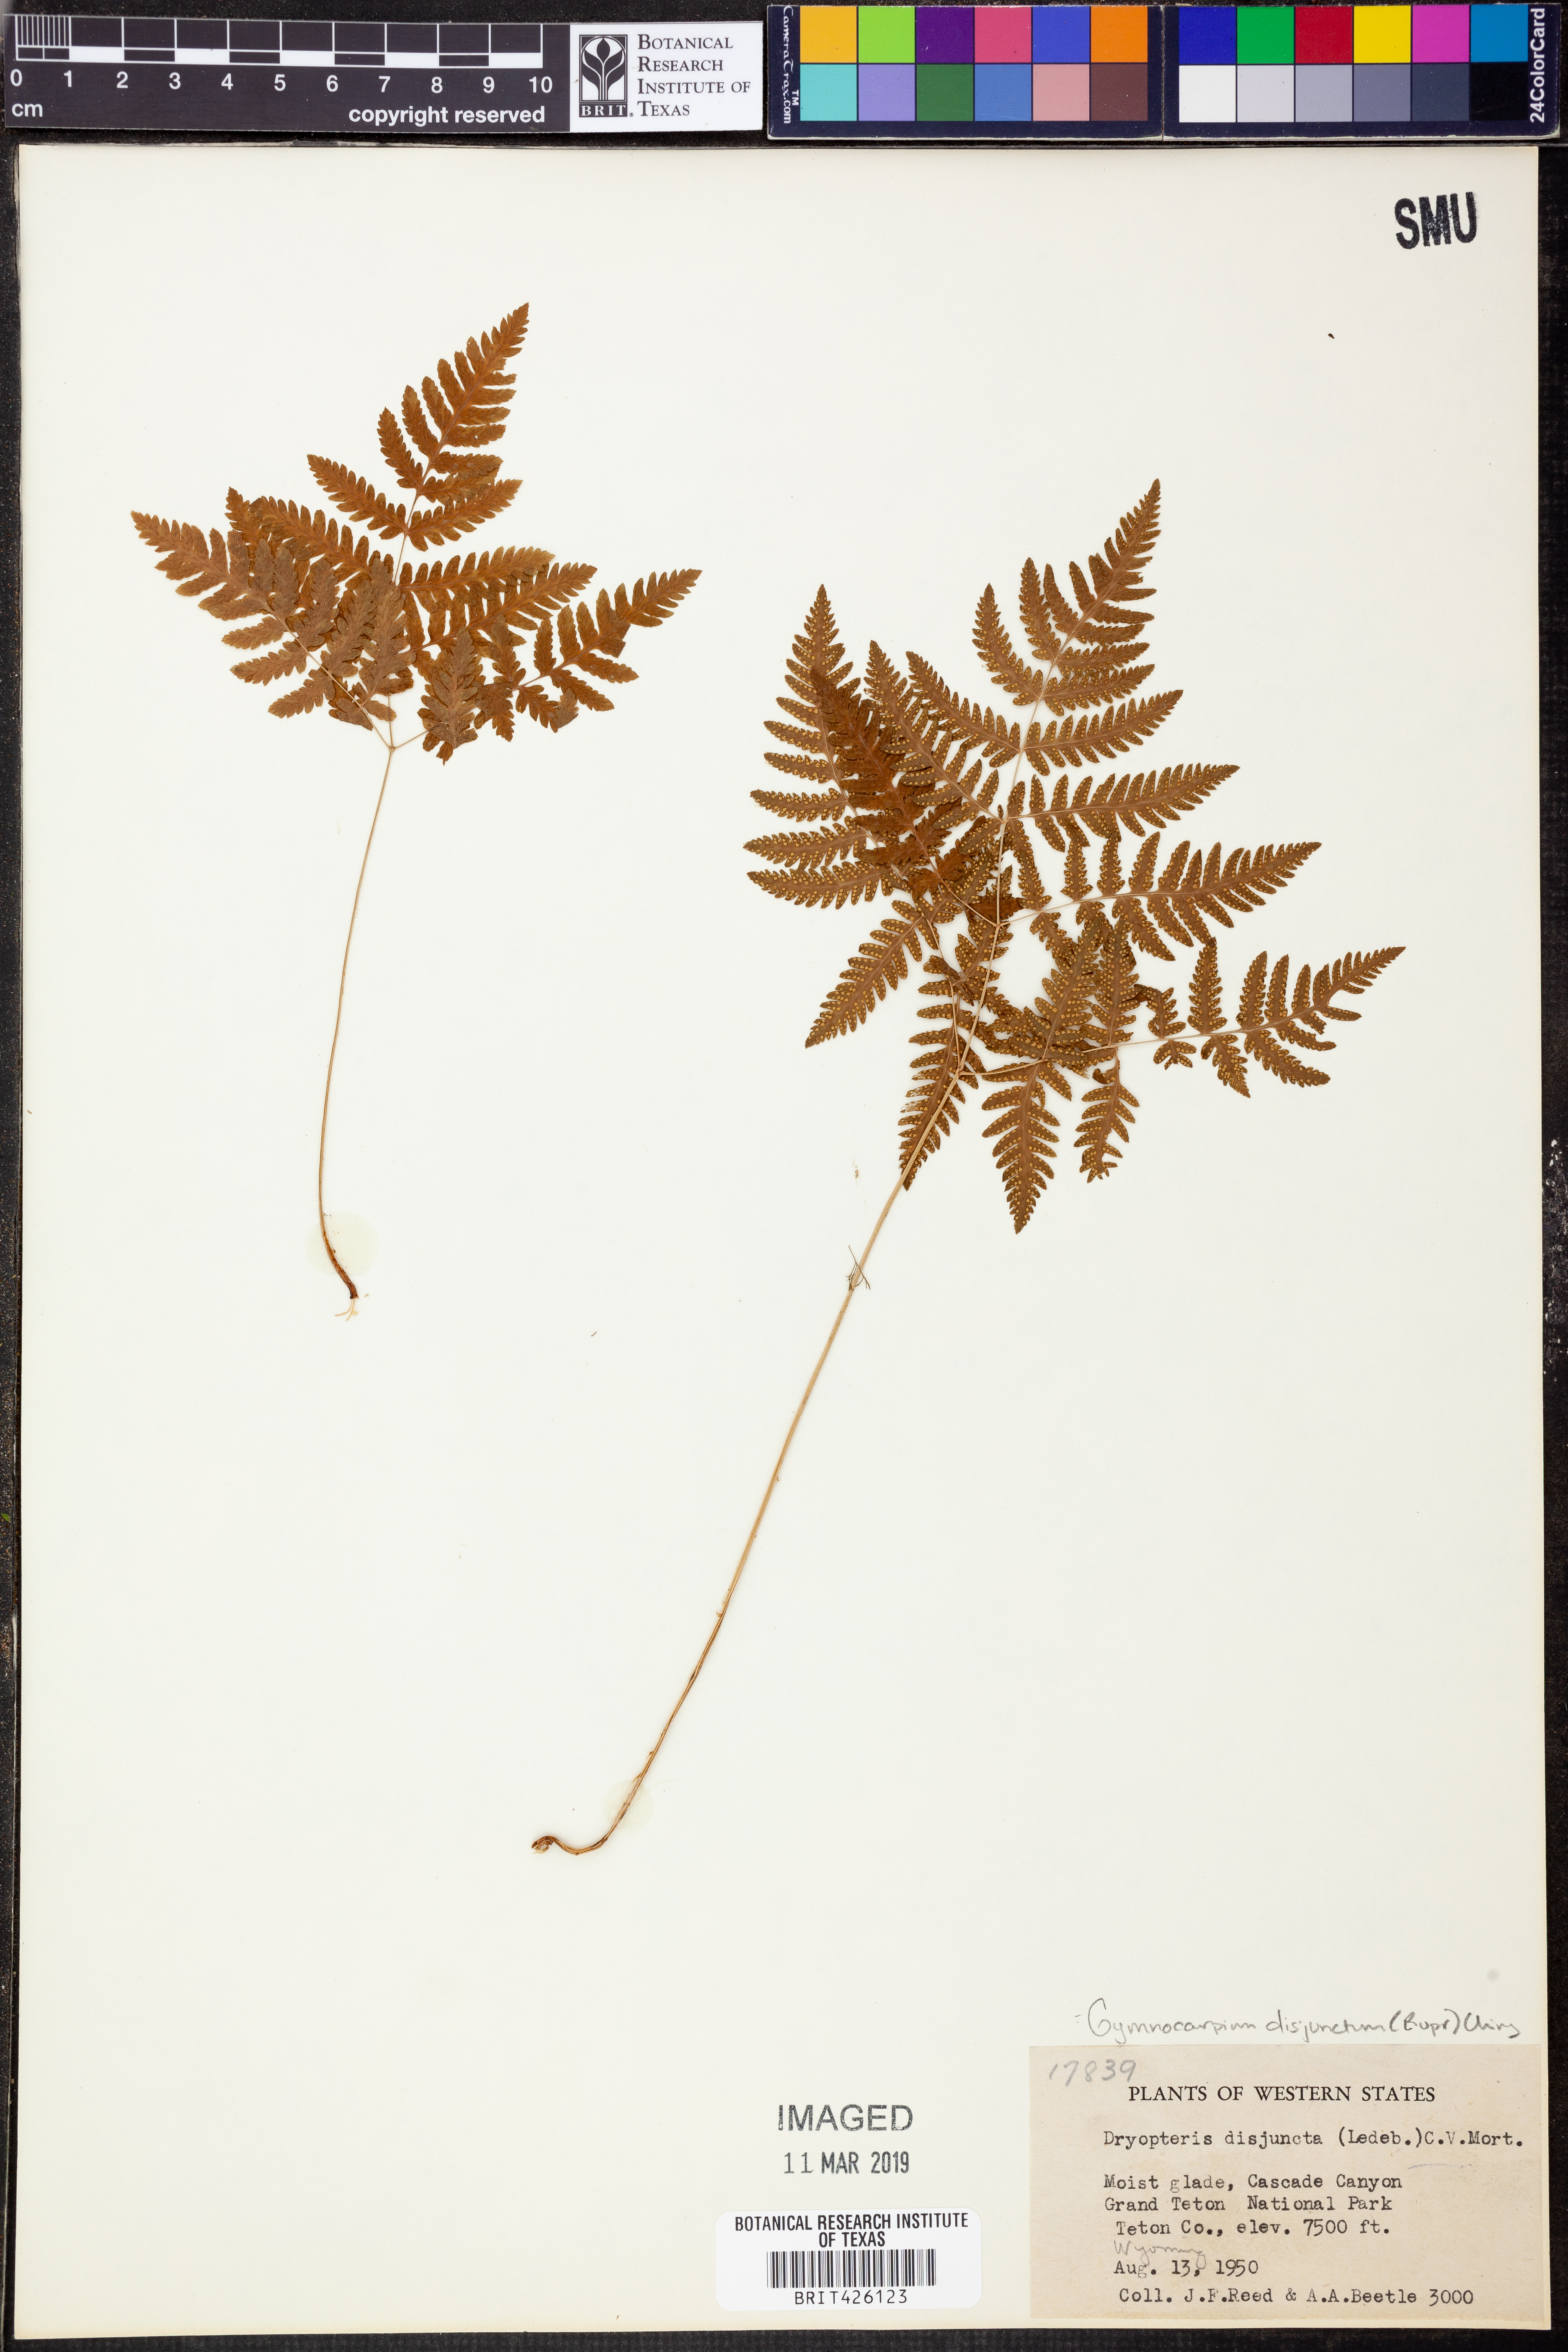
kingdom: Plantae
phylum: Tracheophyta
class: Polypodiopsida
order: Polypodiales
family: Cystopteridaceae
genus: Gymnocarpium
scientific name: Gymnocarpium dryopteris
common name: Oak fern
